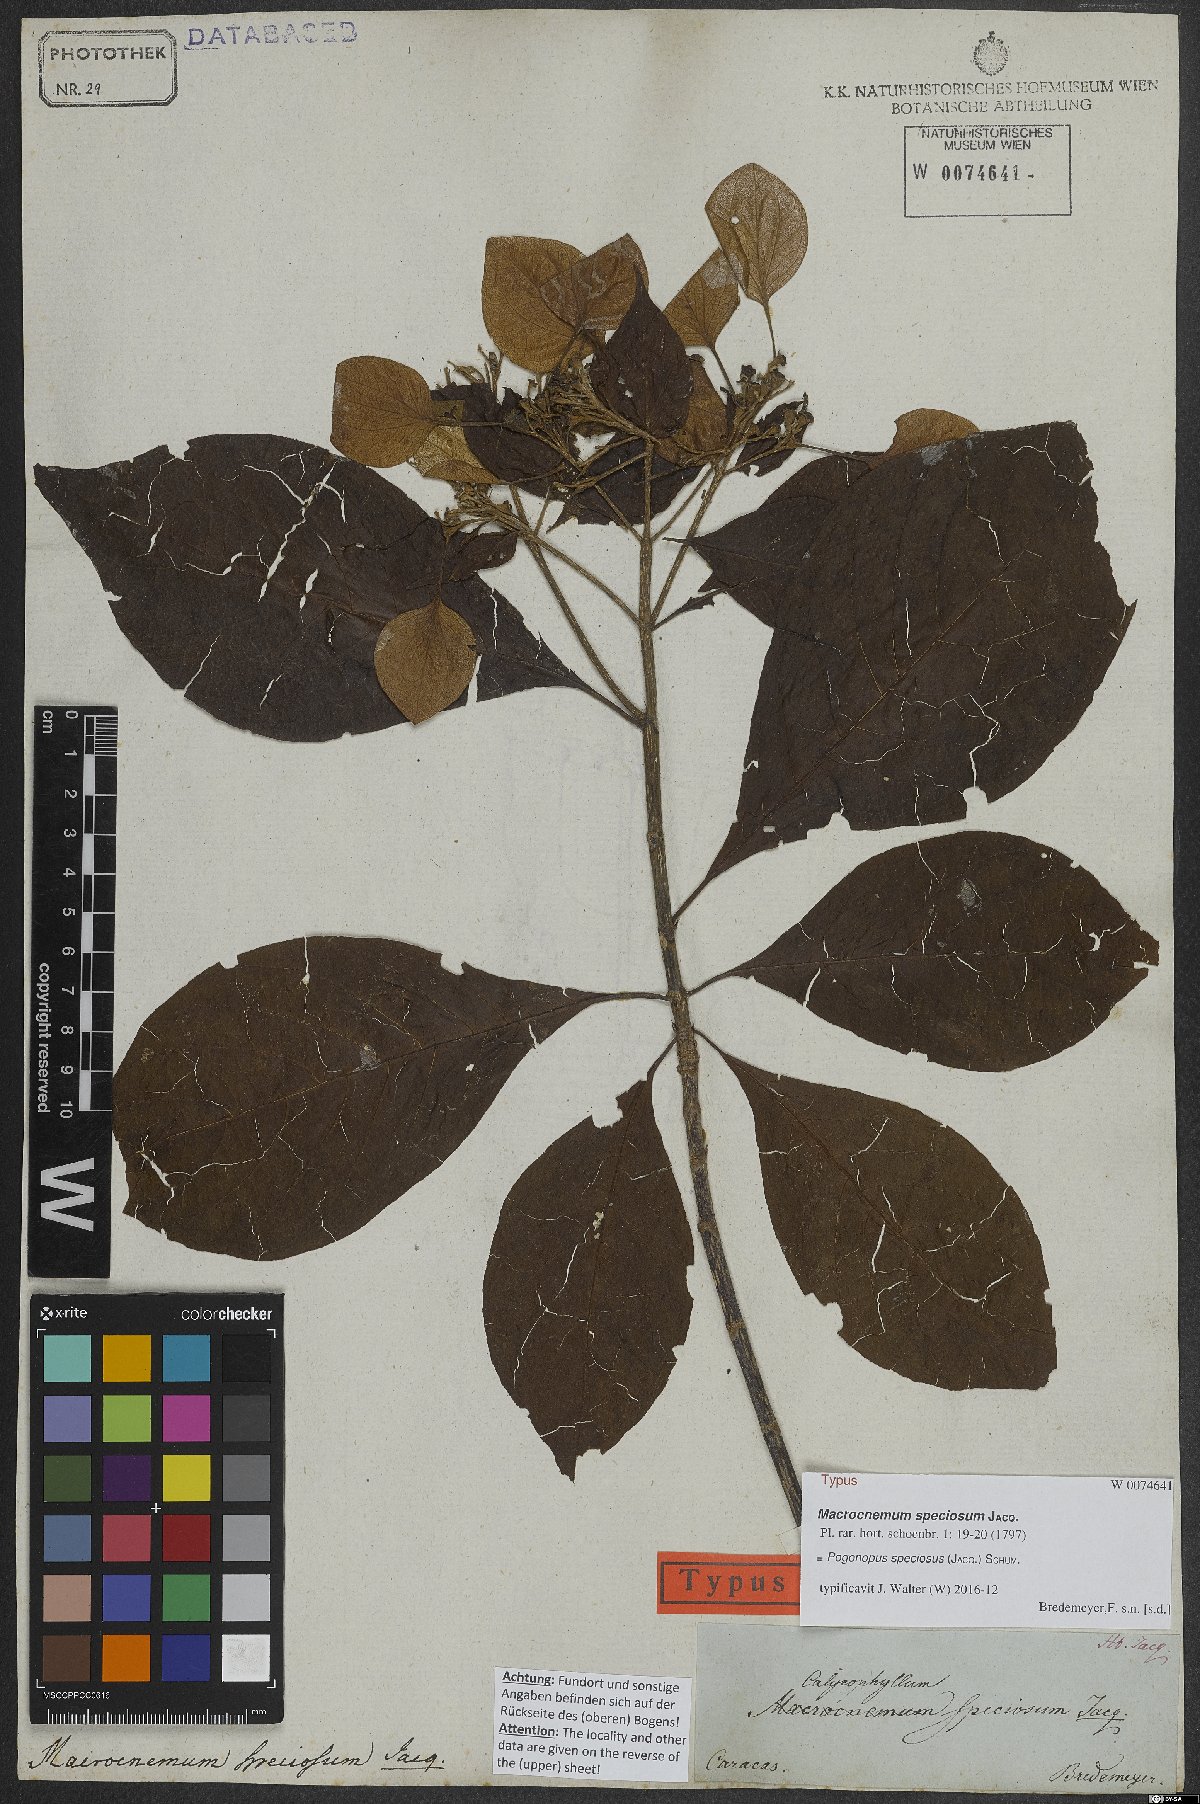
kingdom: Plantae
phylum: Tracheophyta
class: Magnoliopsida
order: Gentianales
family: Rubiaceae
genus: Pogonopus
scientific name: Pogonopus speciosus
